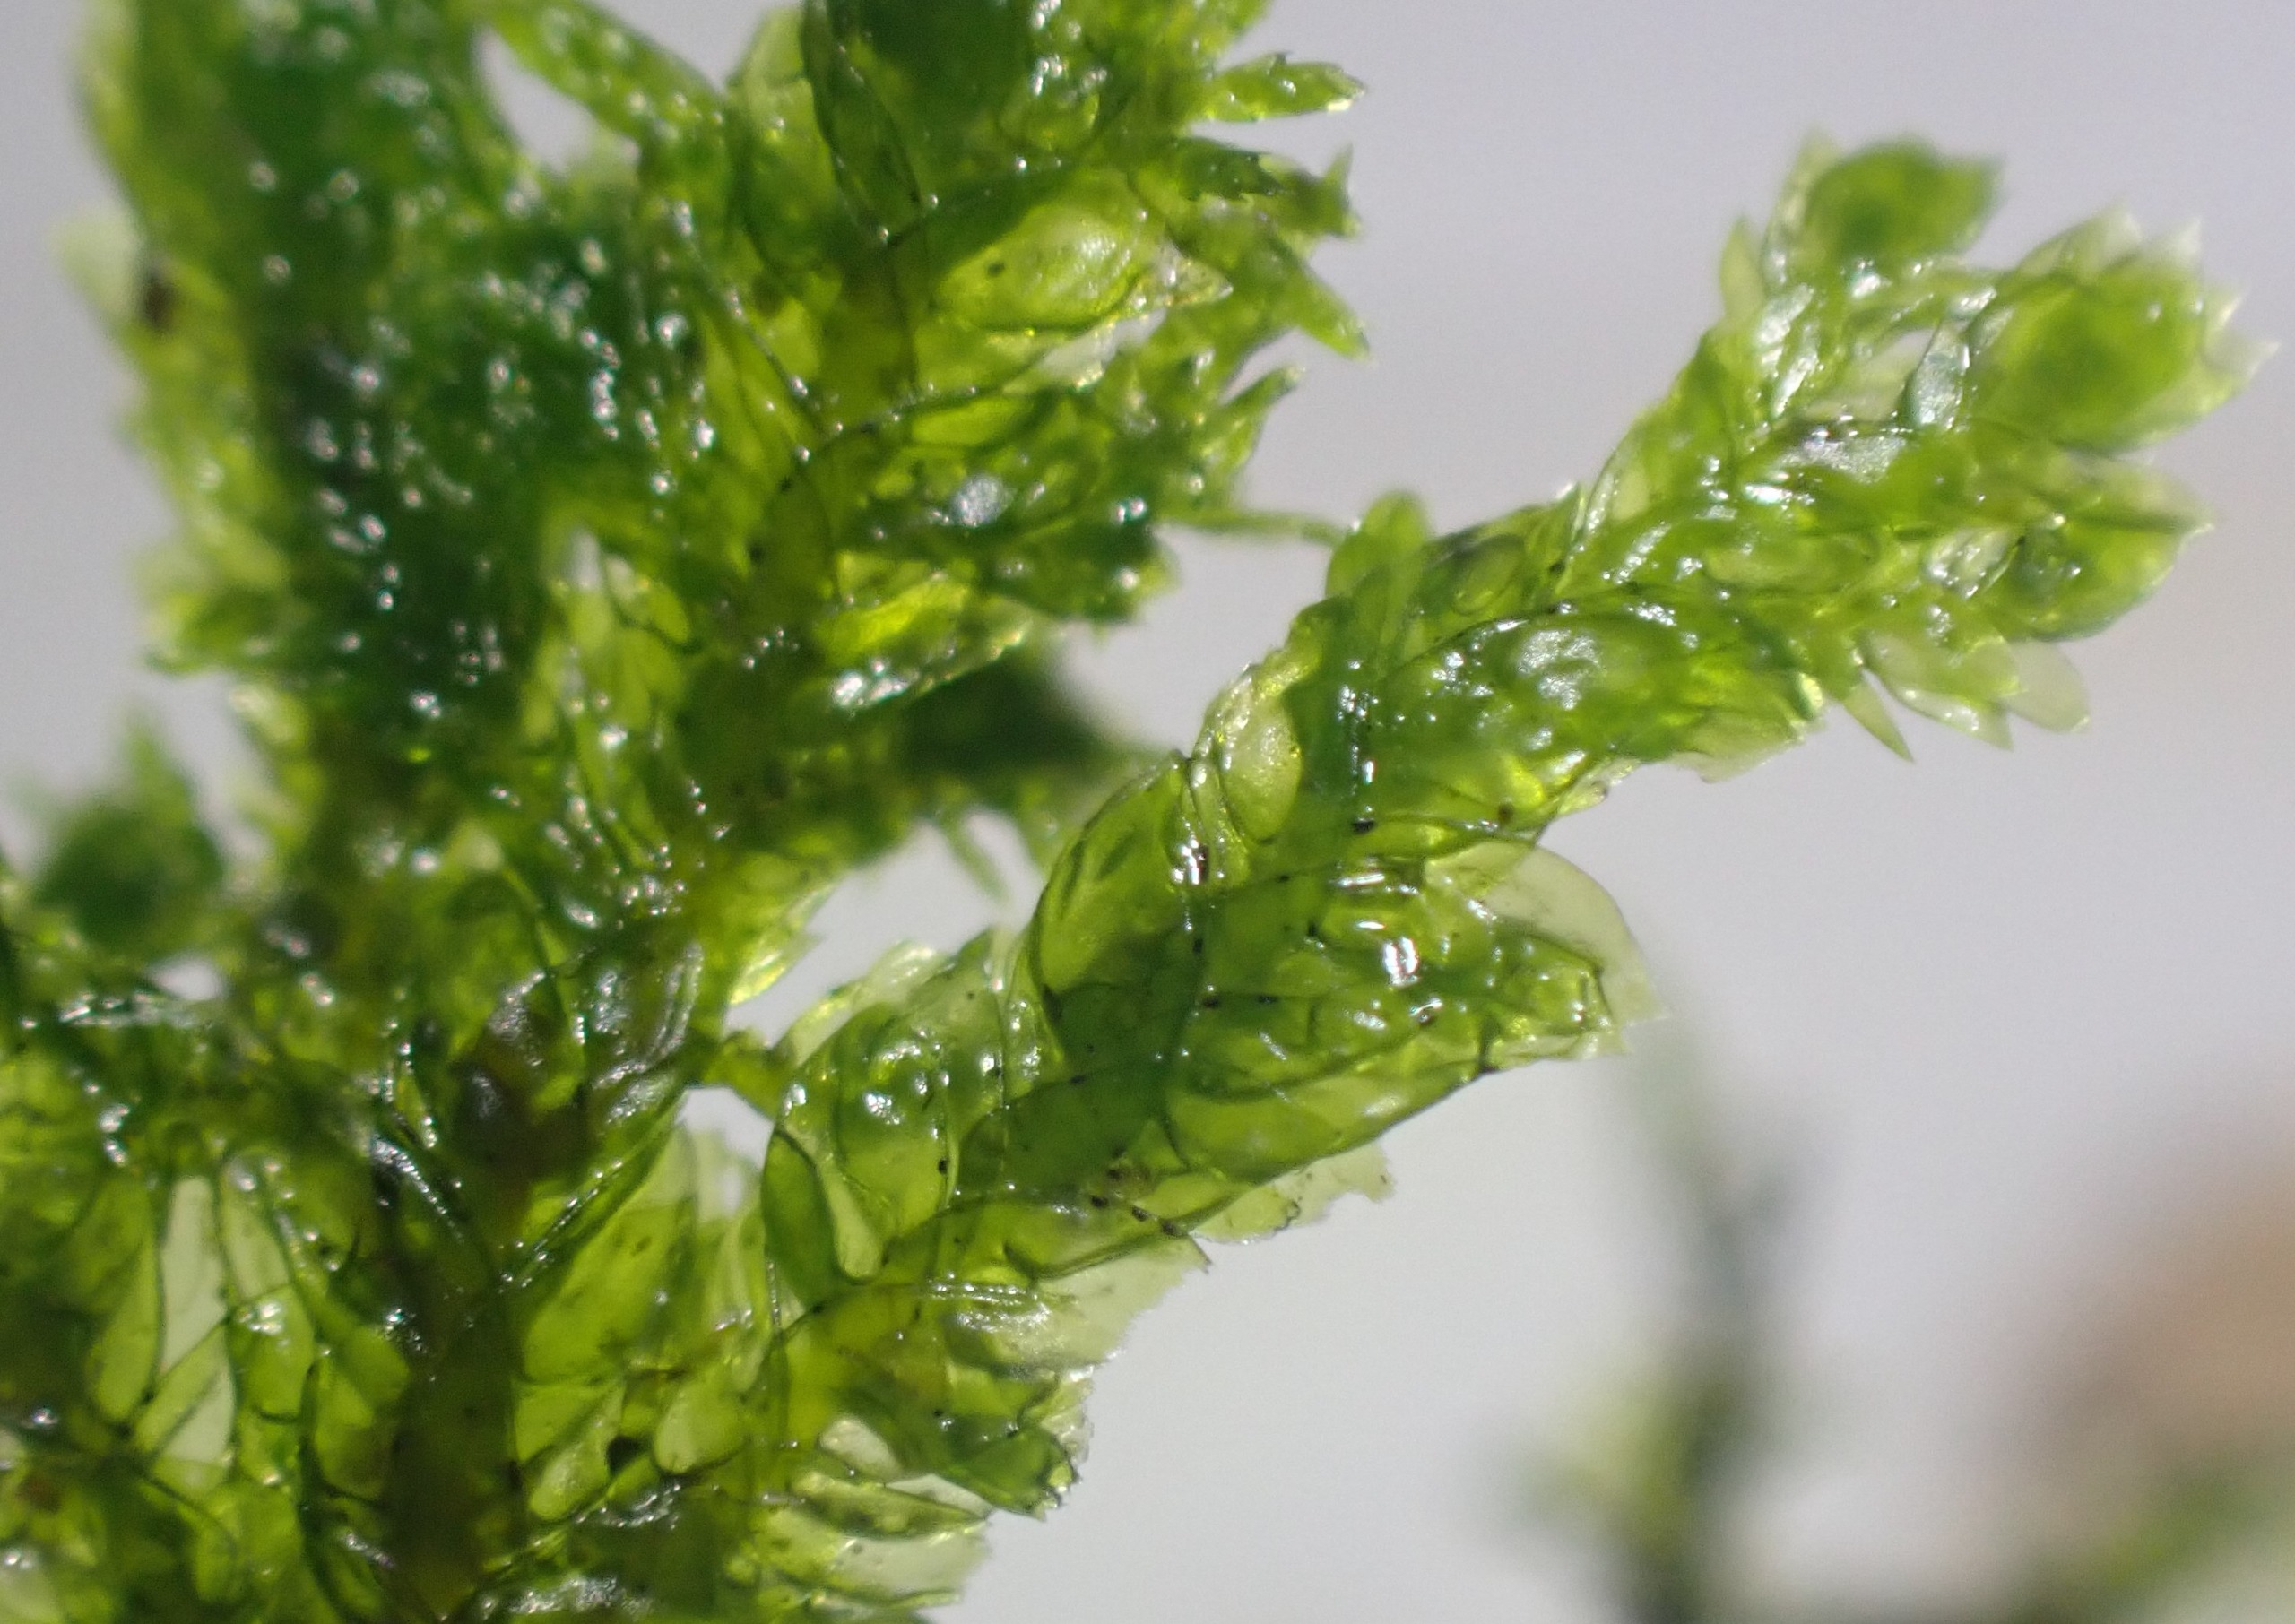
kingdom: Plantae
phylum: Bryophyta
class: Bryopsida
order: Hypnales
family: Neckeraceae
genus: Neckera
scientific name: Neckera pumila
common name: Lav fladmos
